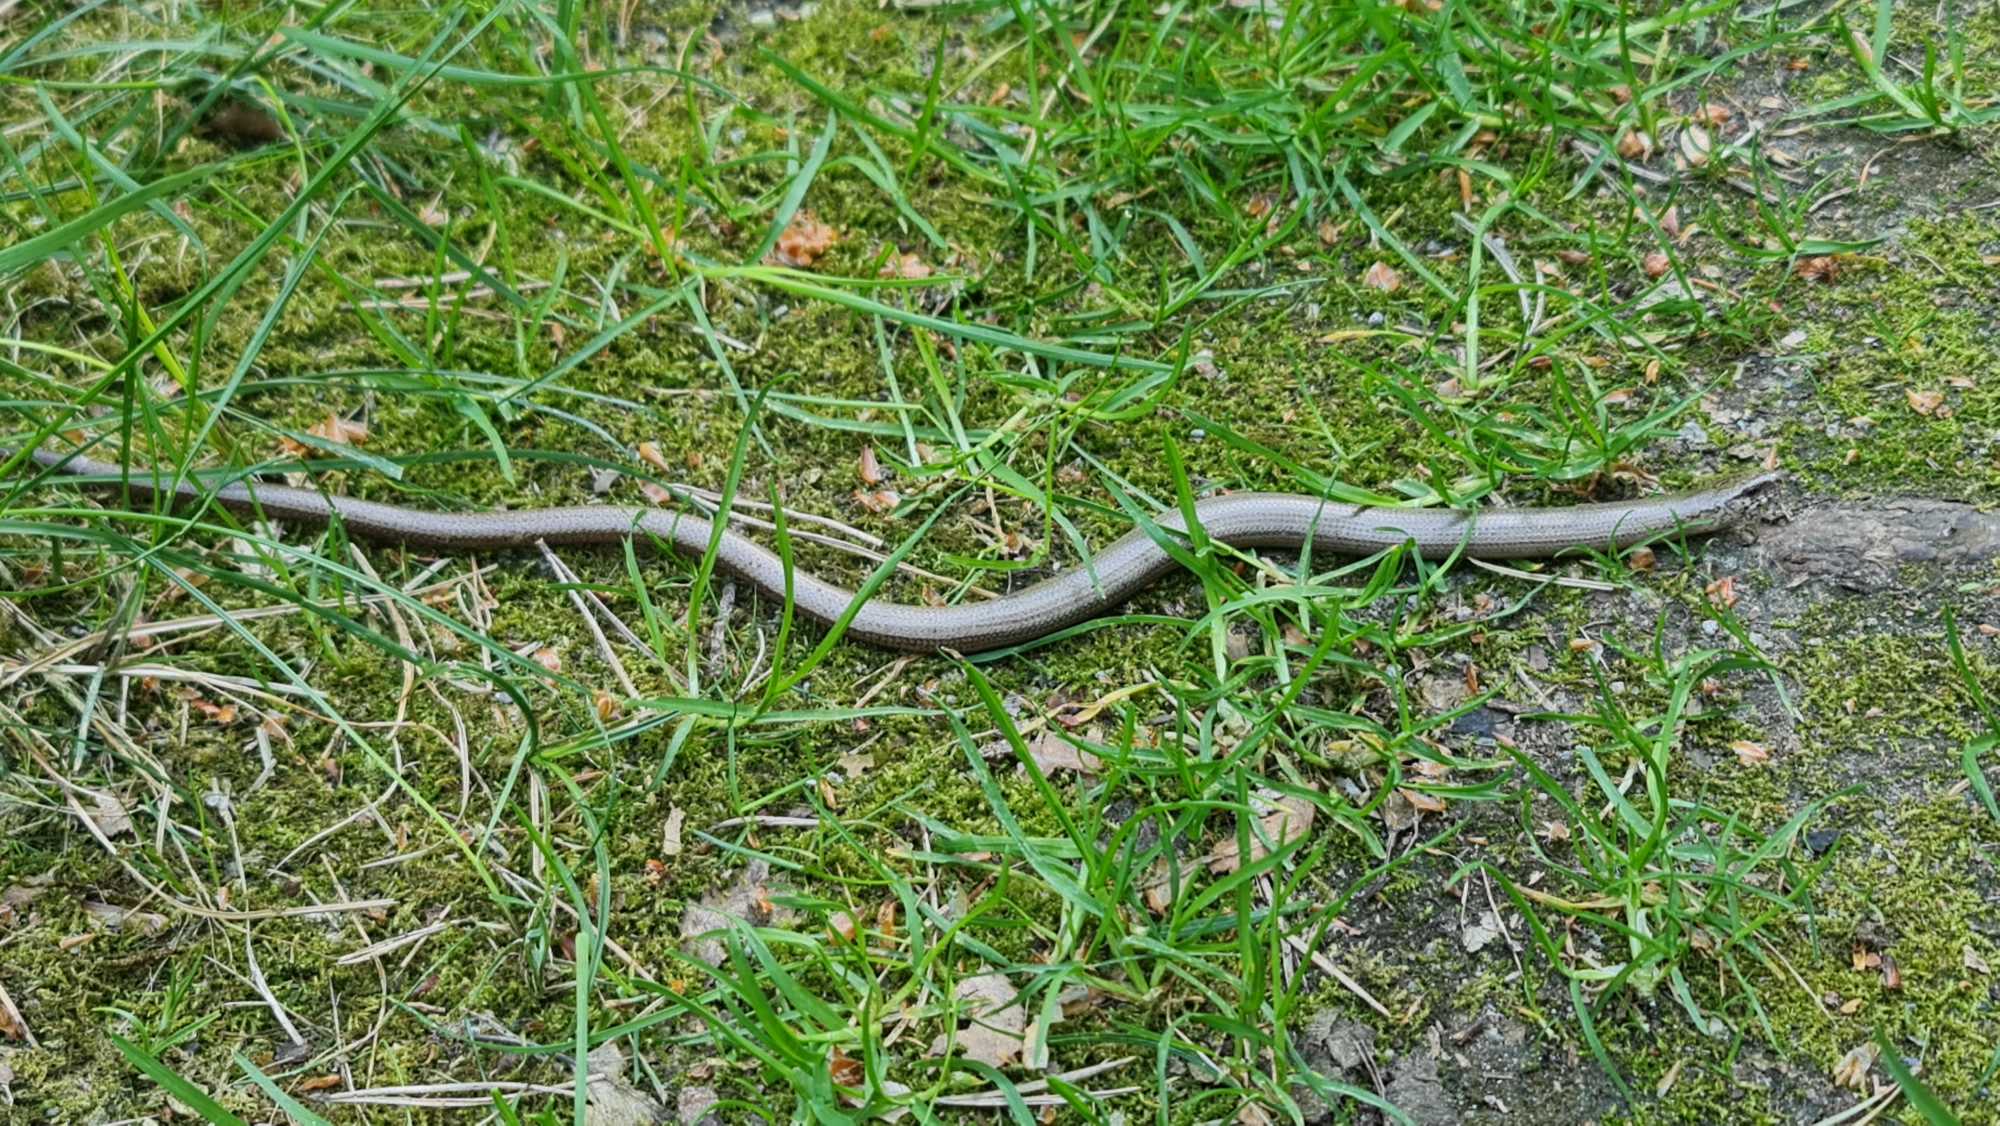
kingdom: Animalia
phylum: Chordata
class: Squamata
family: Anguidae
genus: Anguis
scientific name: Anguis fragilis
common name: Stålorm
